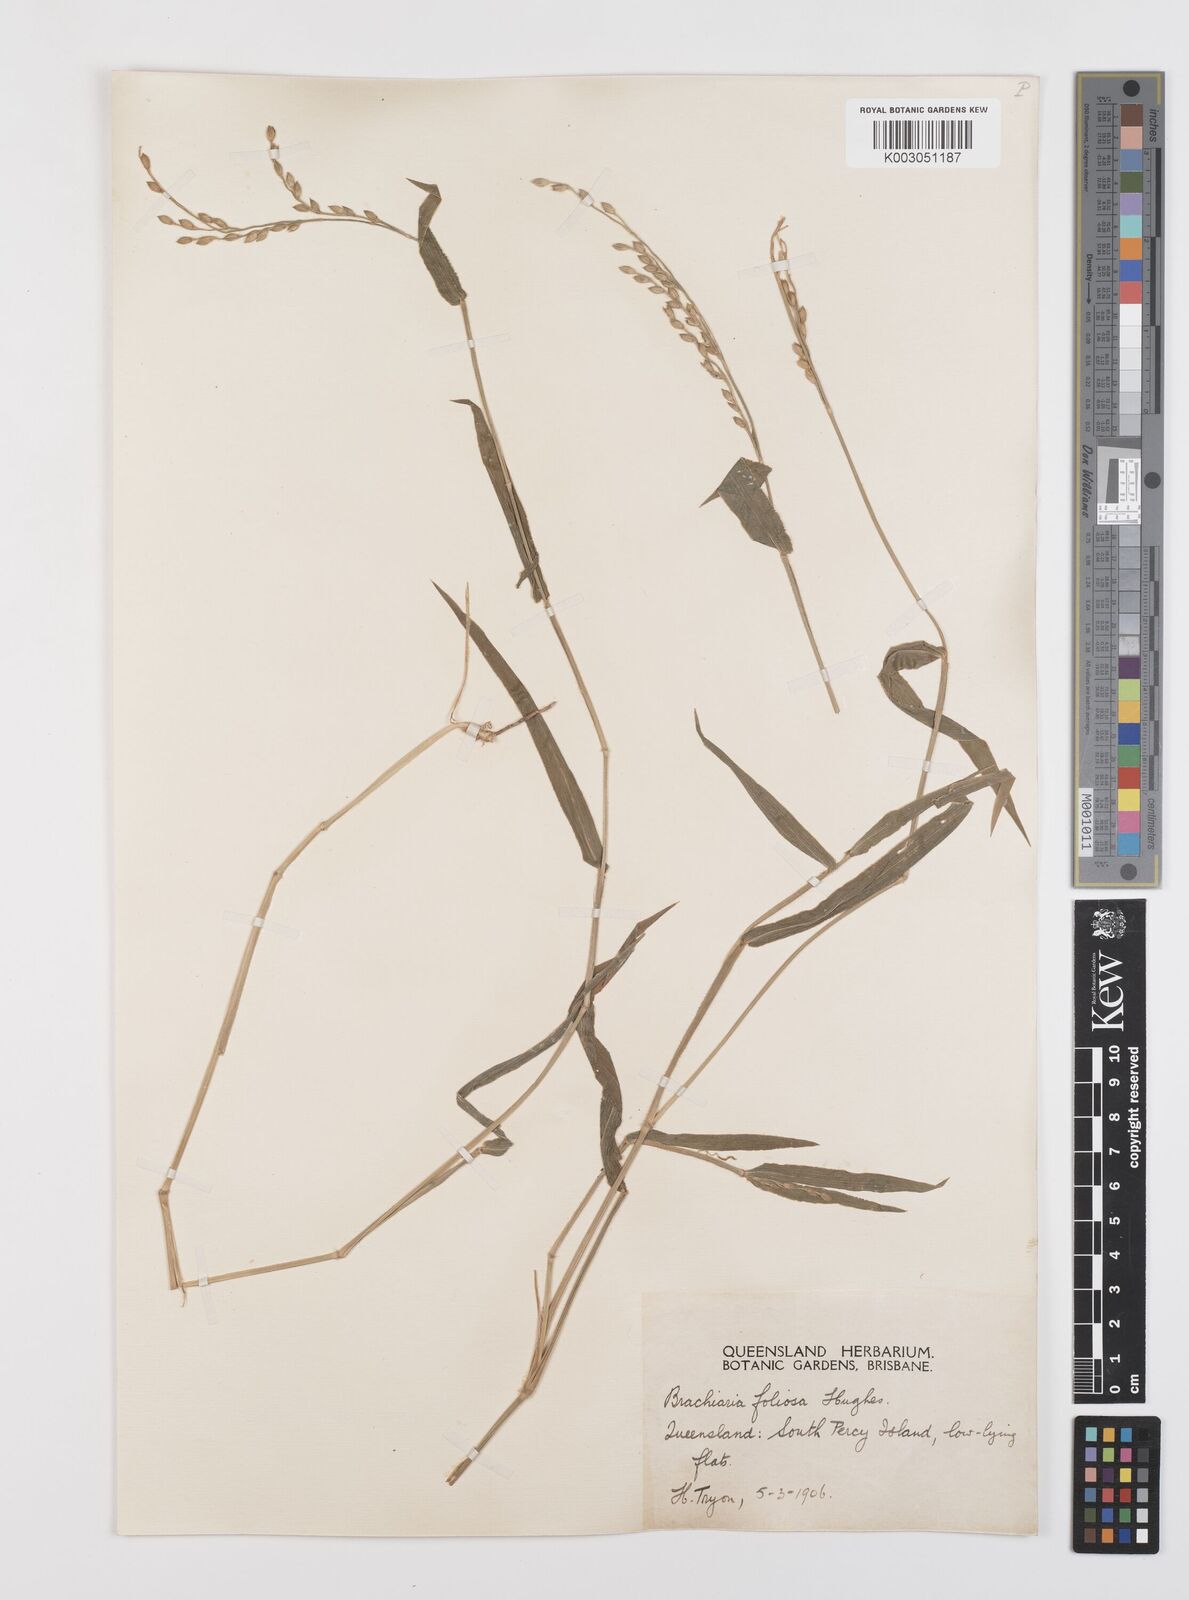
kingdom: Plantae
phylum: Tracheophyta
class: Liliopsida
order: Poales
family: Poaceae
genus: Urochloa
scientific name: Urochloa foliosa
